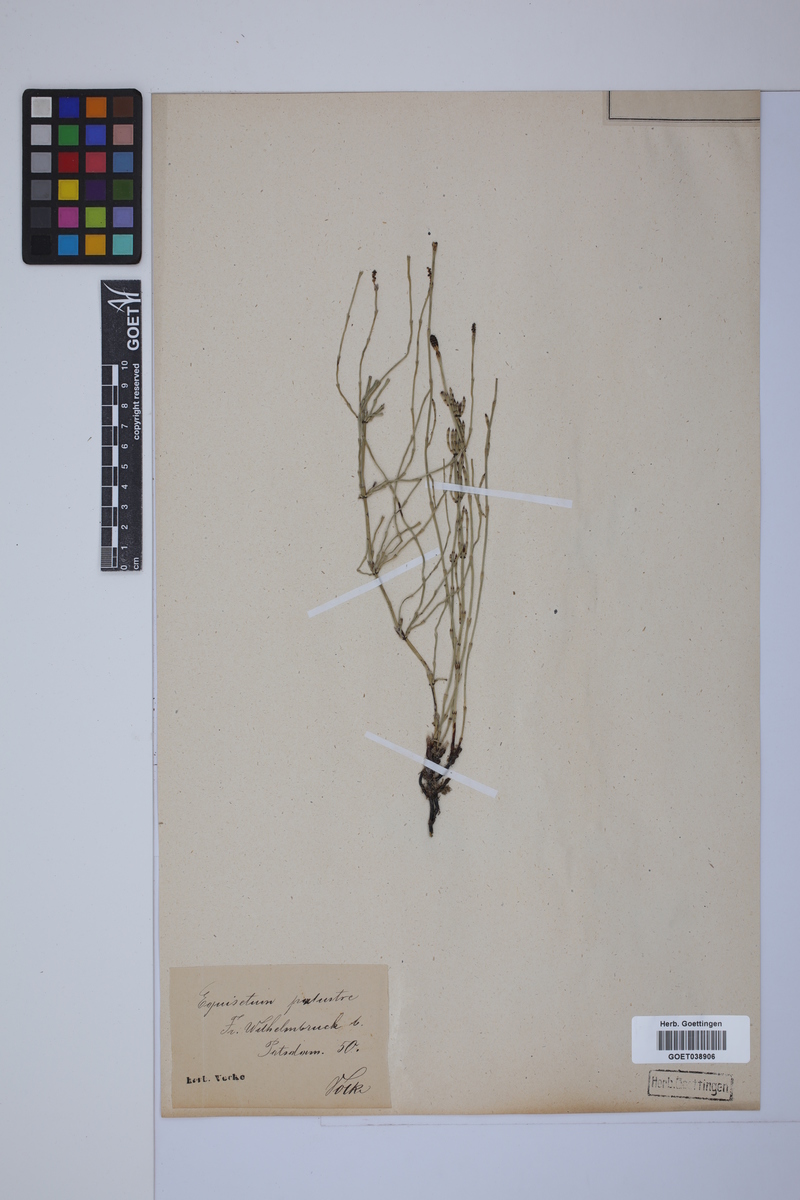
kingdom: Plantae
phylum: Tracheophyta
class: Polypodiopsida
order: Equisetales
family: Equisetaceae
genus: Equisetum
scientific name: Equisetum palustre
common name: Marsh horsetail
